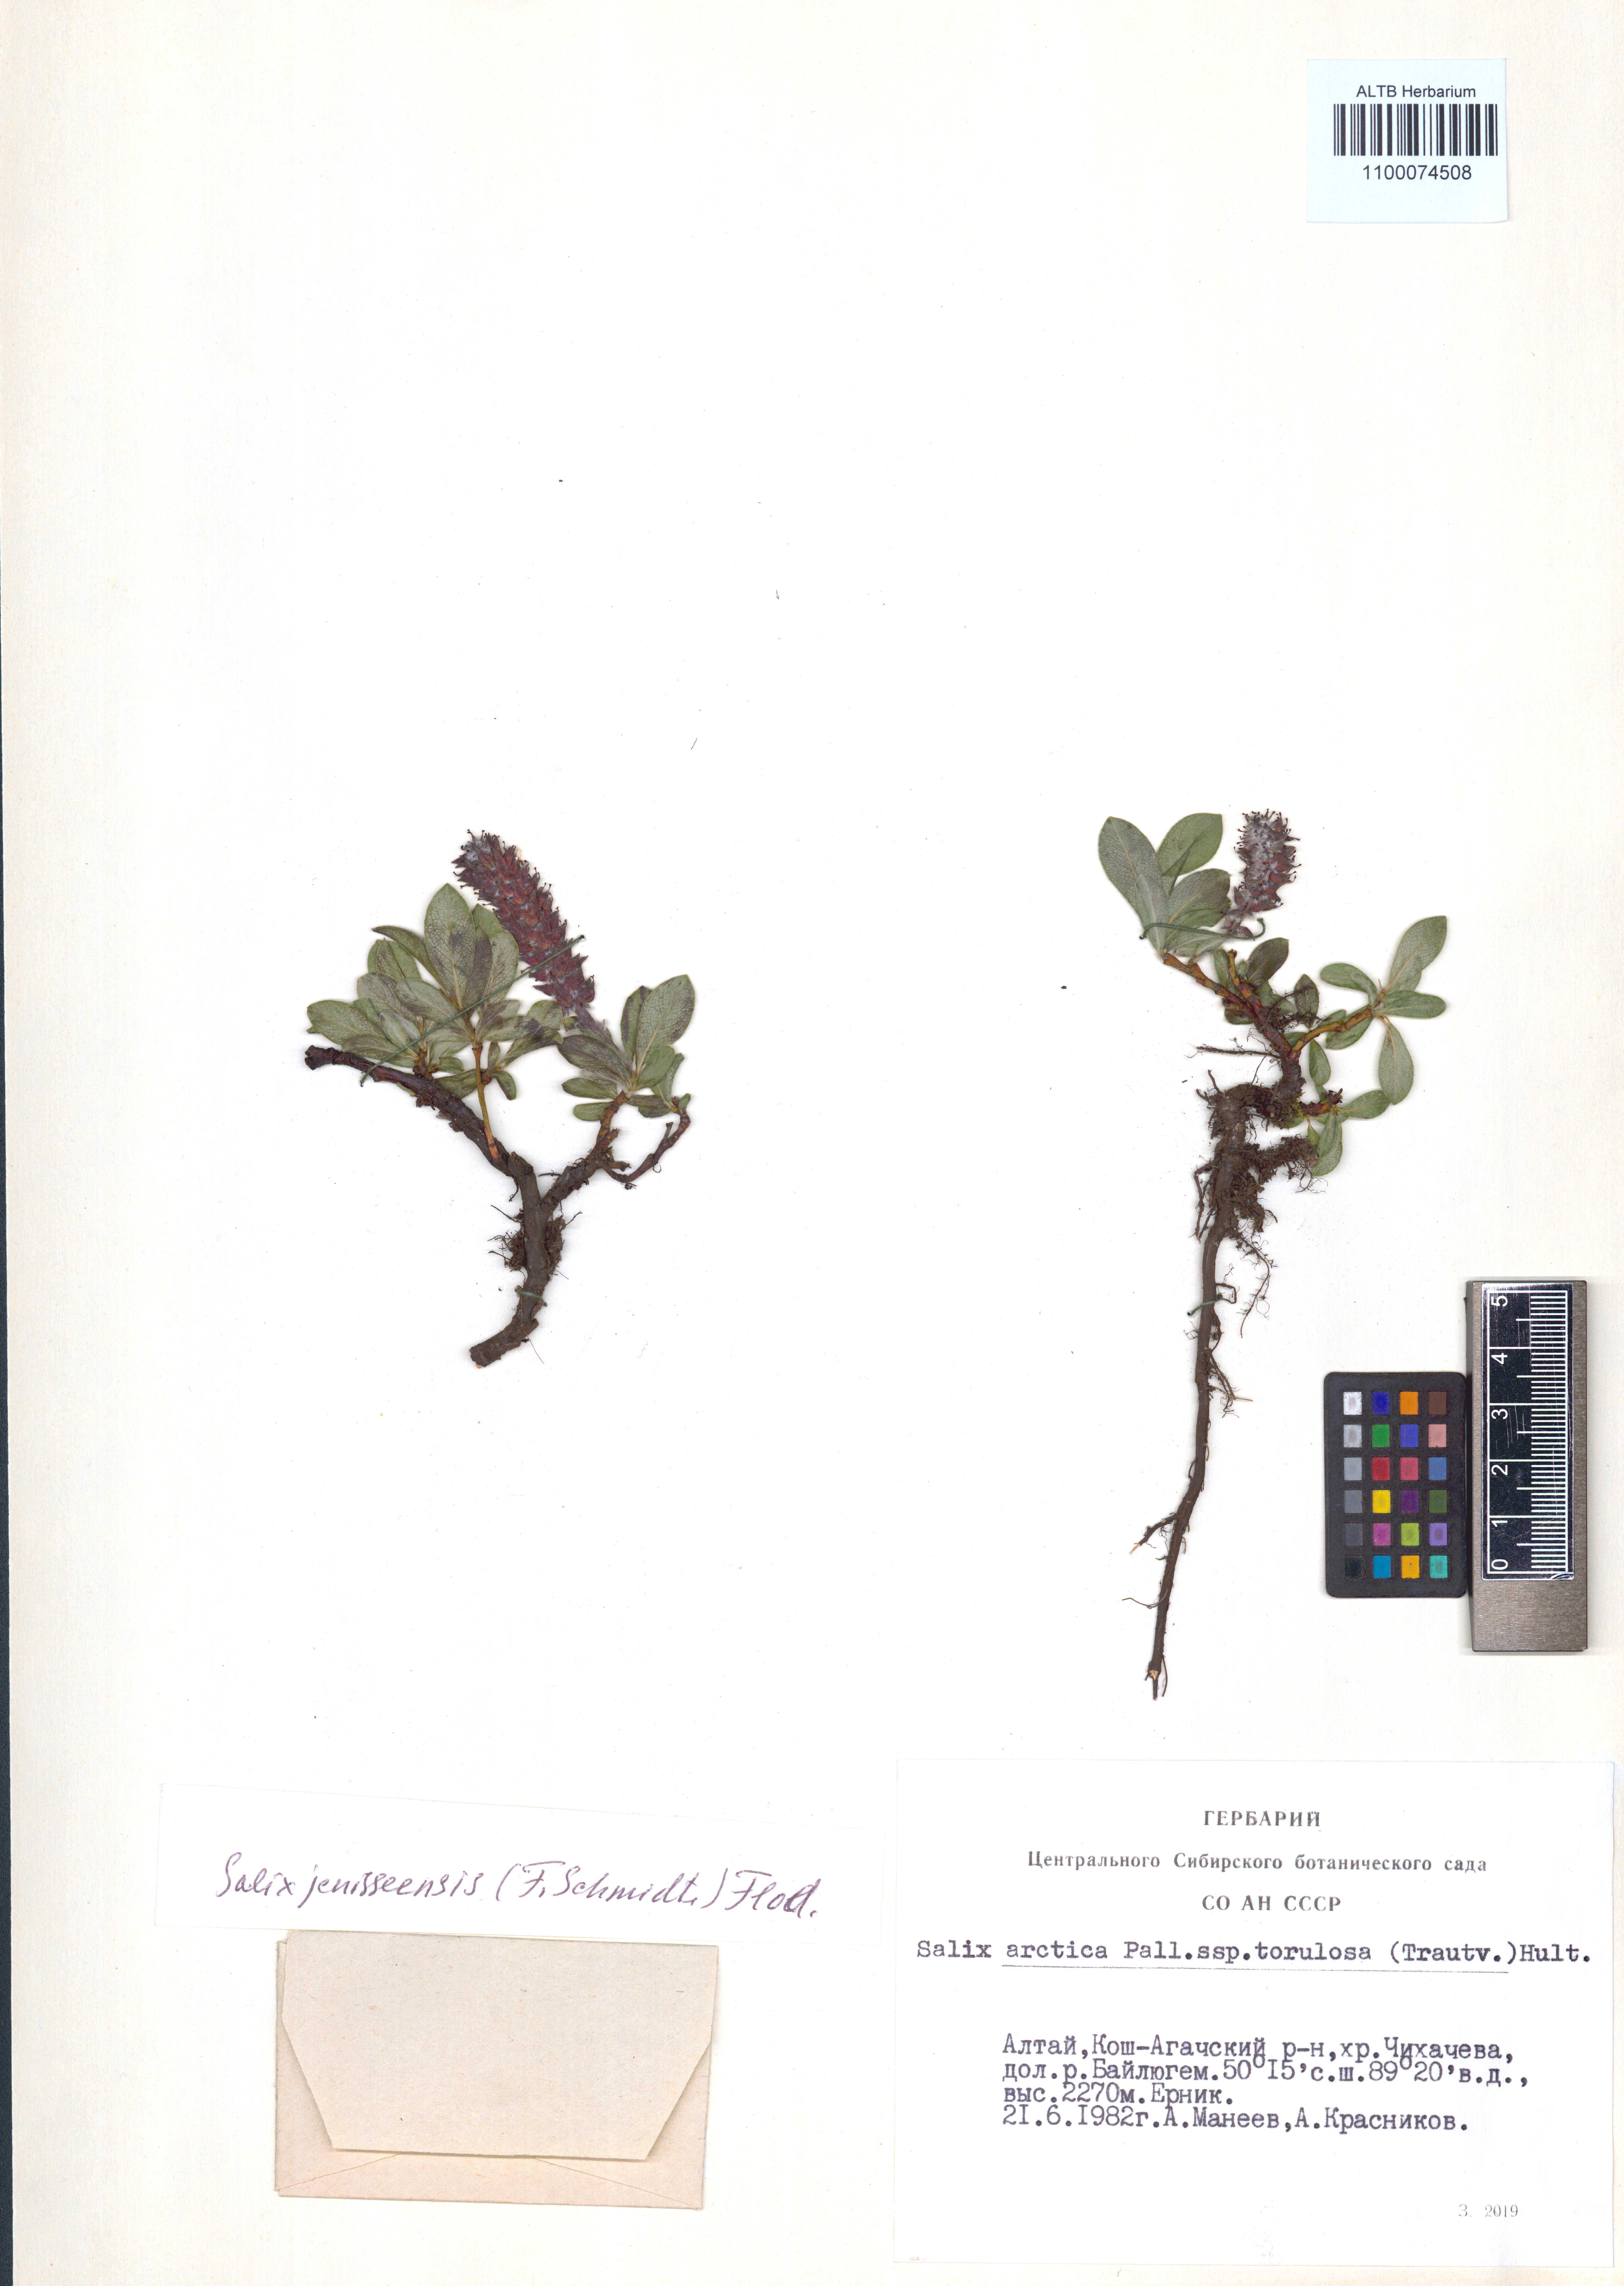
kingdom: Plantae
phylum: Tracheophyta
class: Magnoliopsida
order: Malpighiales
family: Salicaceae
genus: Salix
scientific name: Salix arctica
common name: Arctic willow
